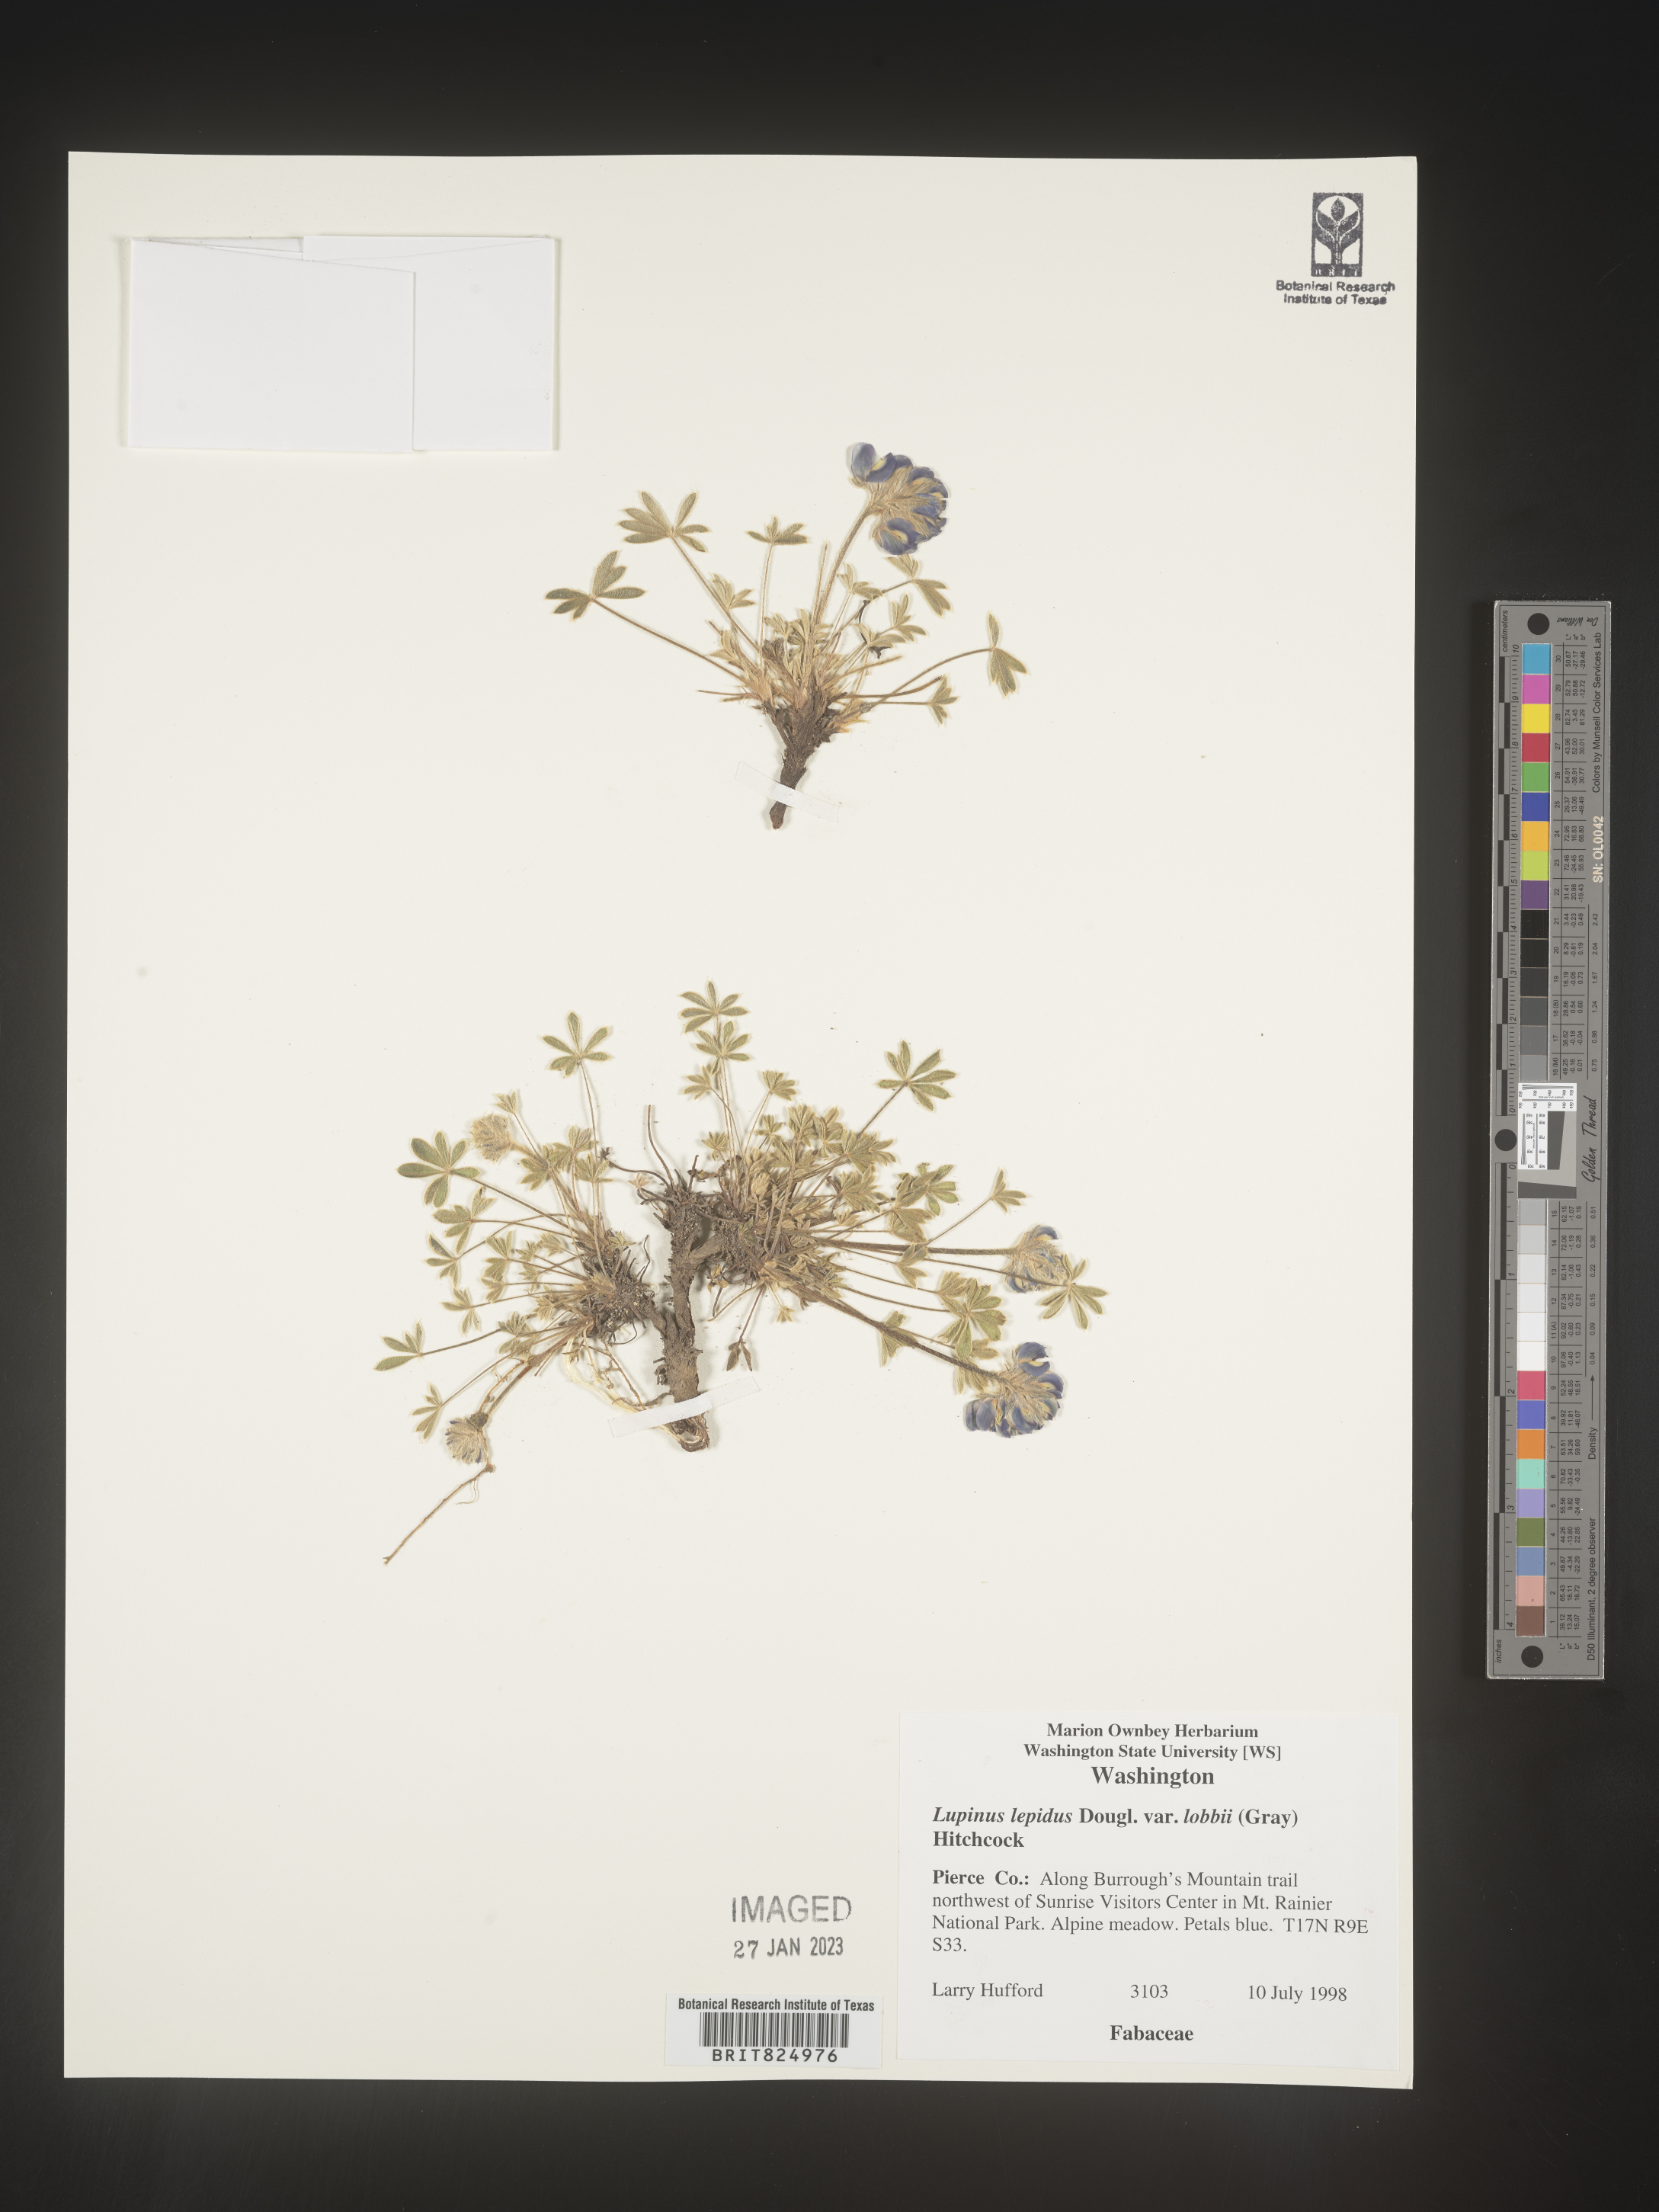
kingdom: Plantae
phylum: Tracheophyta
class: Magnoliopsida
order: Fabales
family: Fabaceae
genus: Lupinus
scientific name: Lupinus
